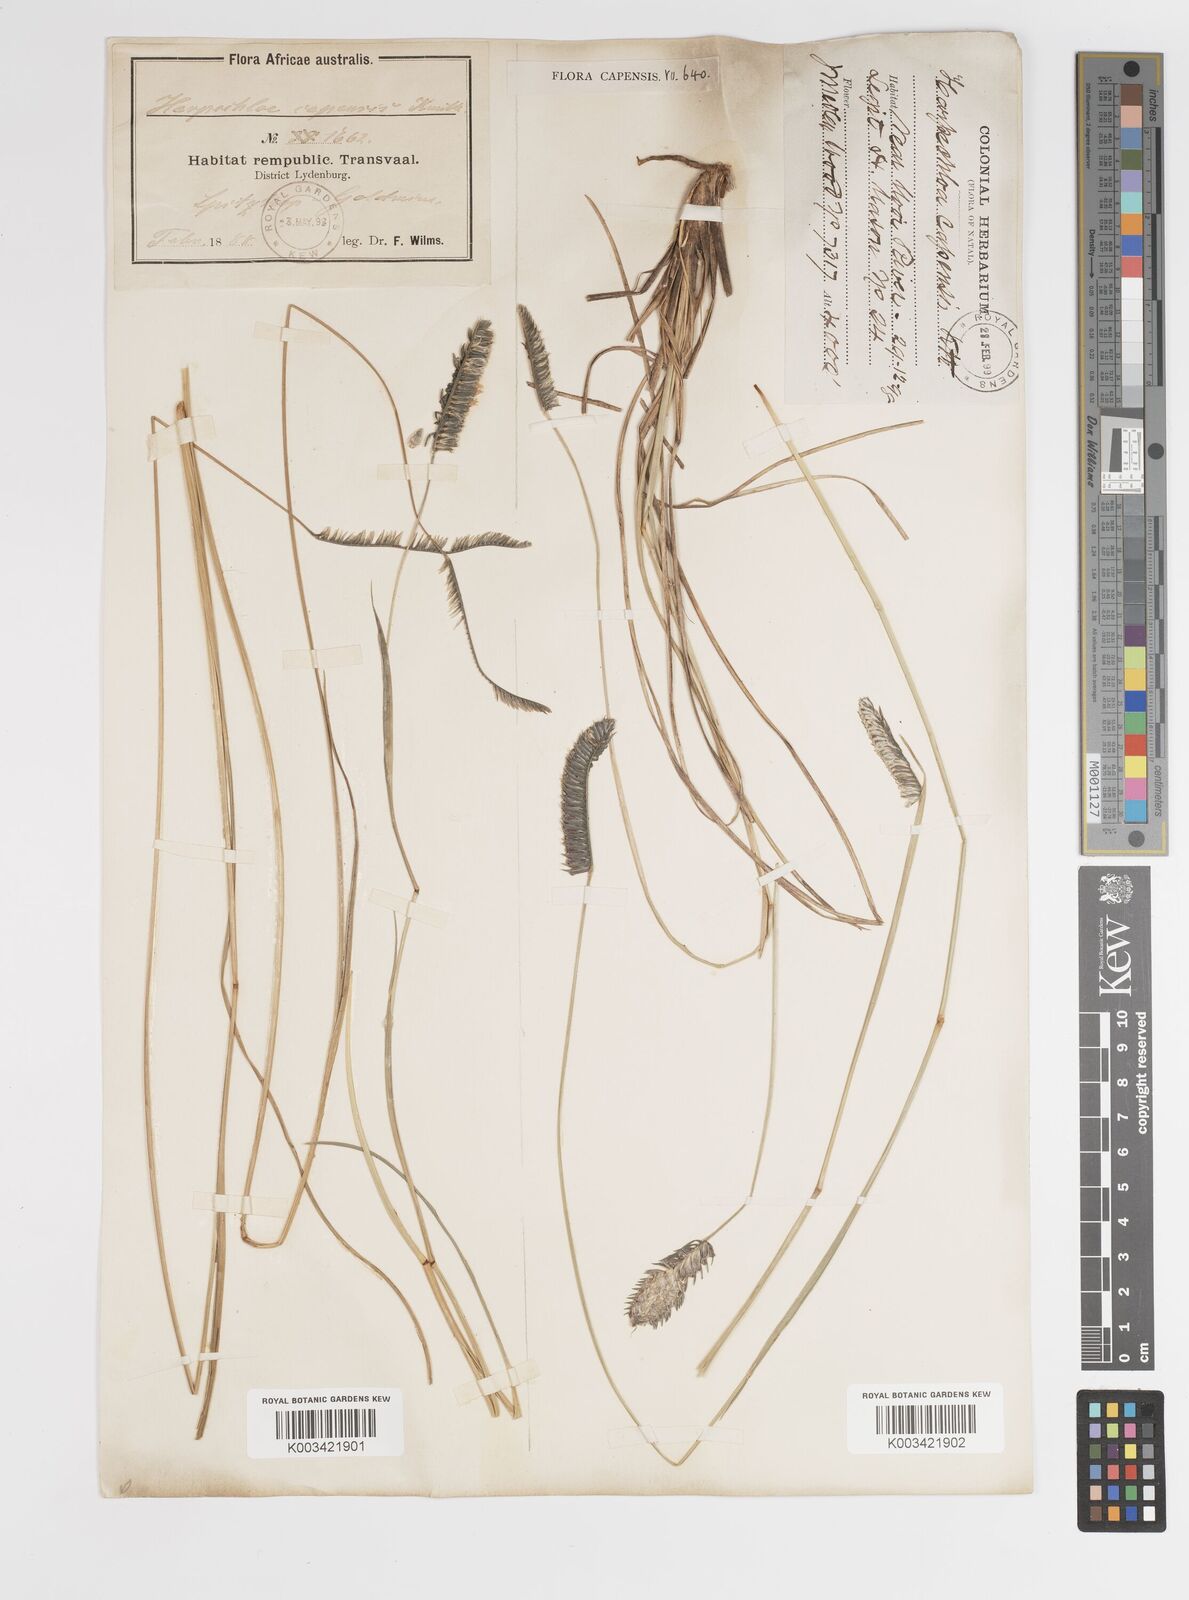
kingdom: Plantae
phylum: Tracheophyta
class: Liliopsida
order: Poales
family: Poaceae
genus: Harpochloa
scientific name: Harpochloa falx
